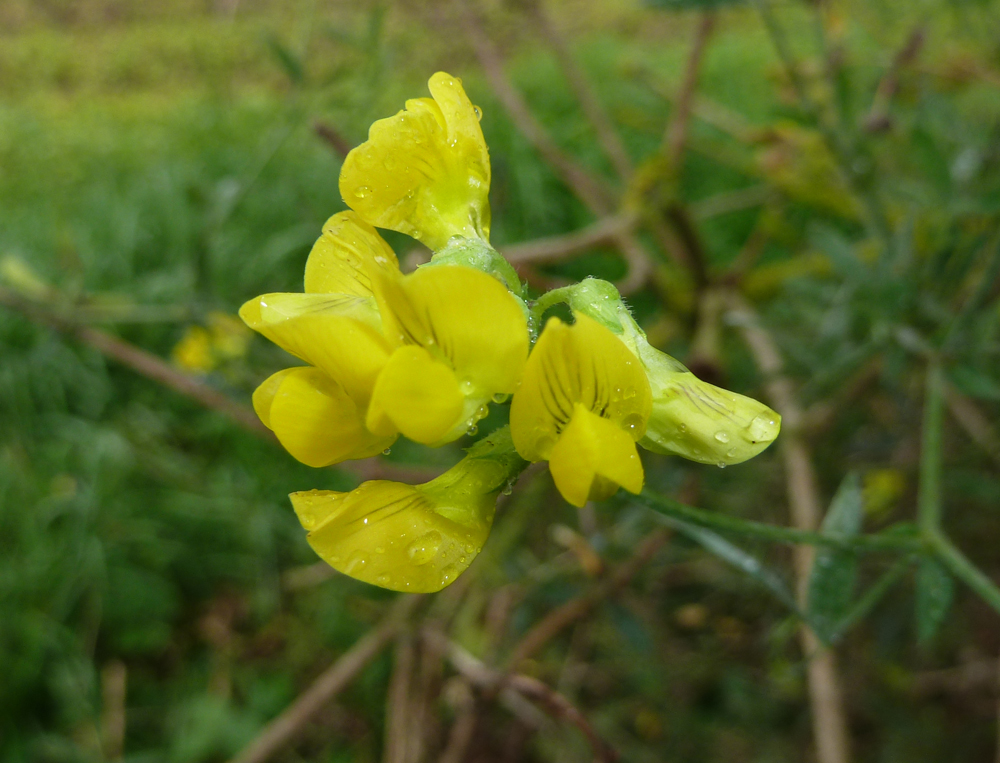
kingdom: Plantae
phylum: Tracheophyta
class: Magnoliopsida
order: Fabales
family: Fabaceae
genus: Cytisus
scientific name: Cytisus scoparius
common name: Scotch broom
